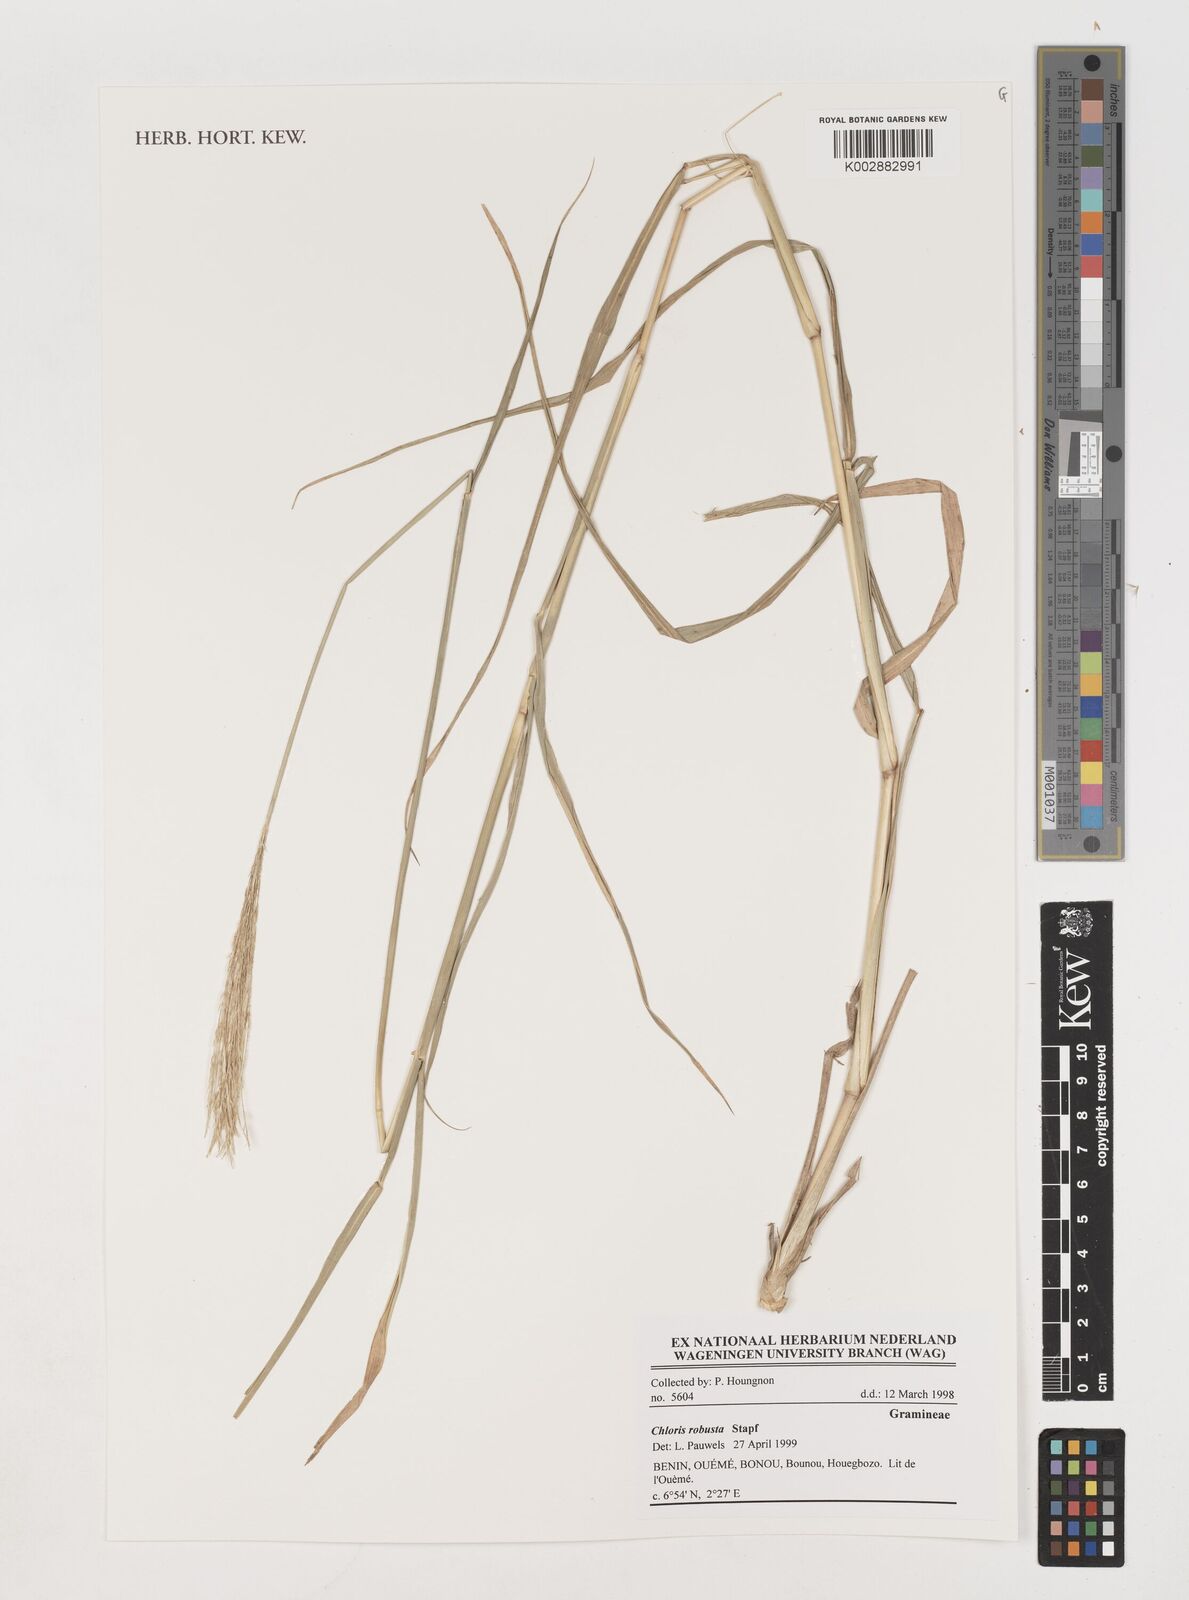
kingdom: Plantae
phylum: Tracheophyta
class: Liliopsida
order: Poales
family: Poaceae
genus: Chloris
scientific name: Chloris robusta
